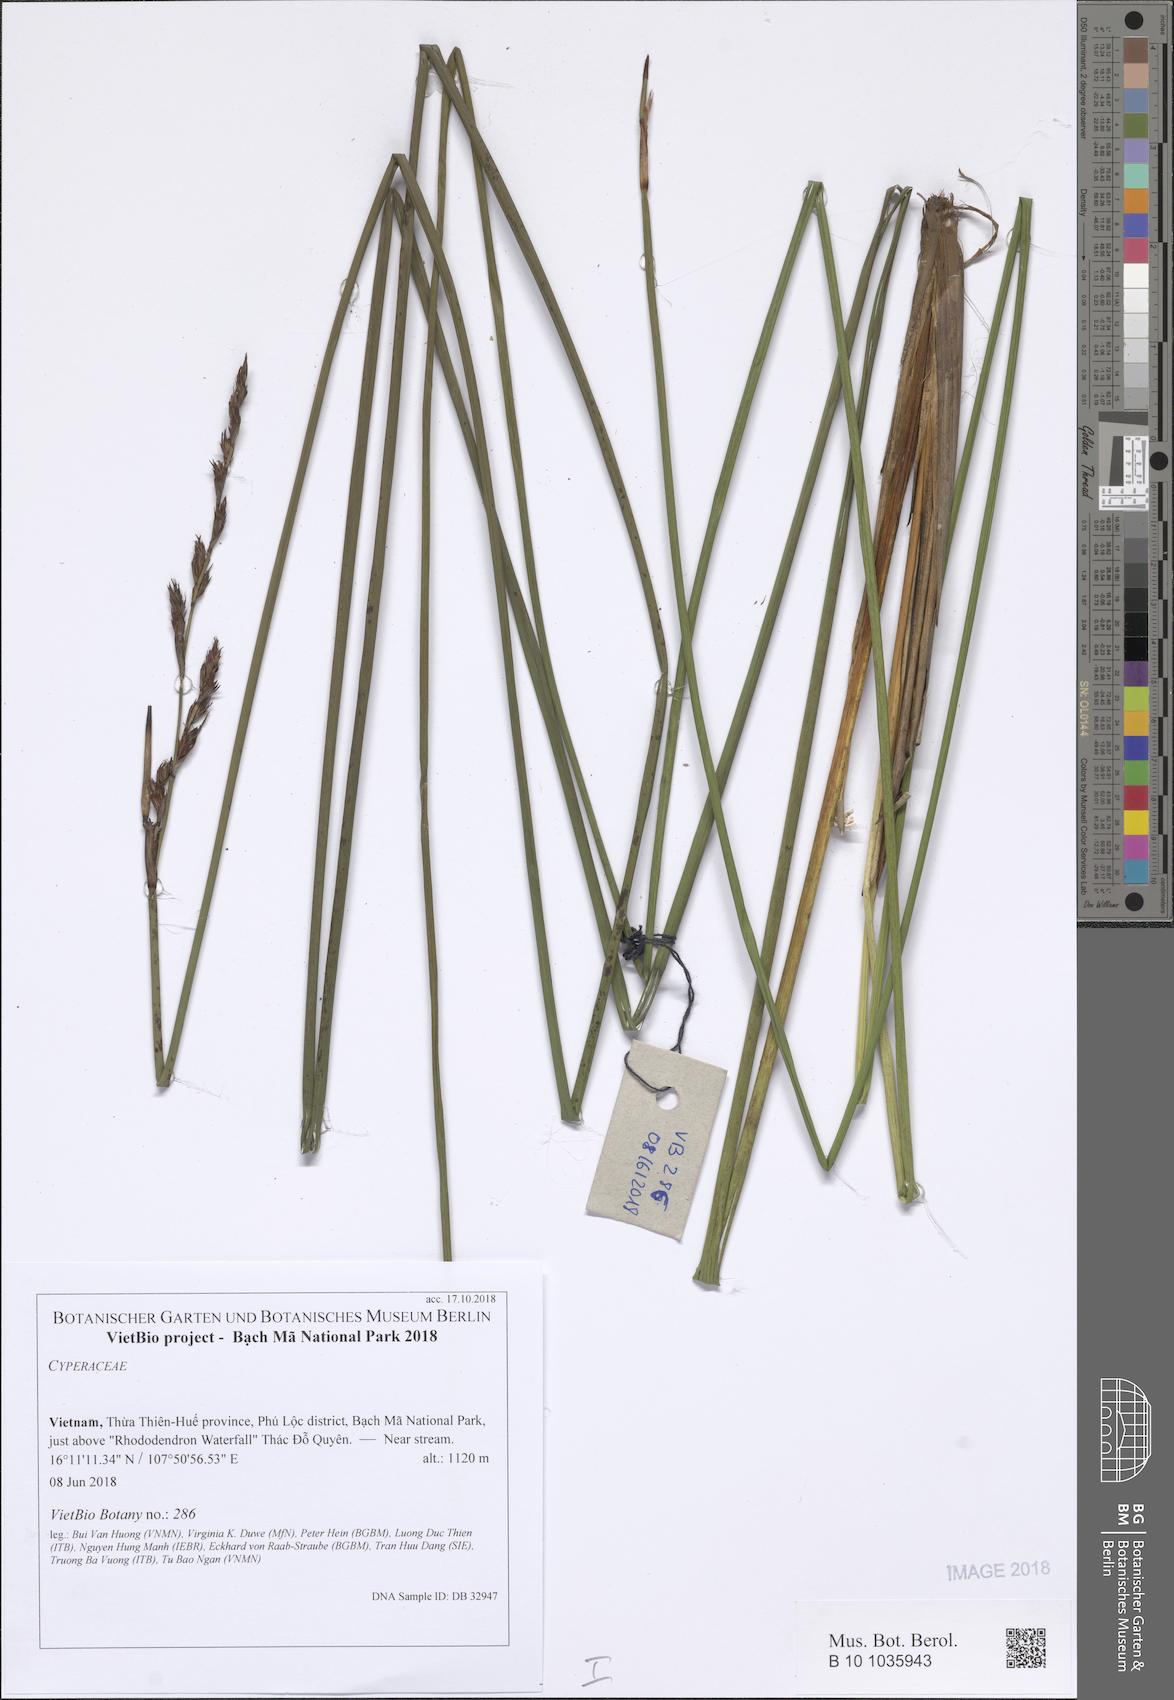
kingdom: Plantae
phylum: Tracheophyta
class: Liliopsida
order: Poales
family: Cyperaceae
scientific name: Cyperaceae
